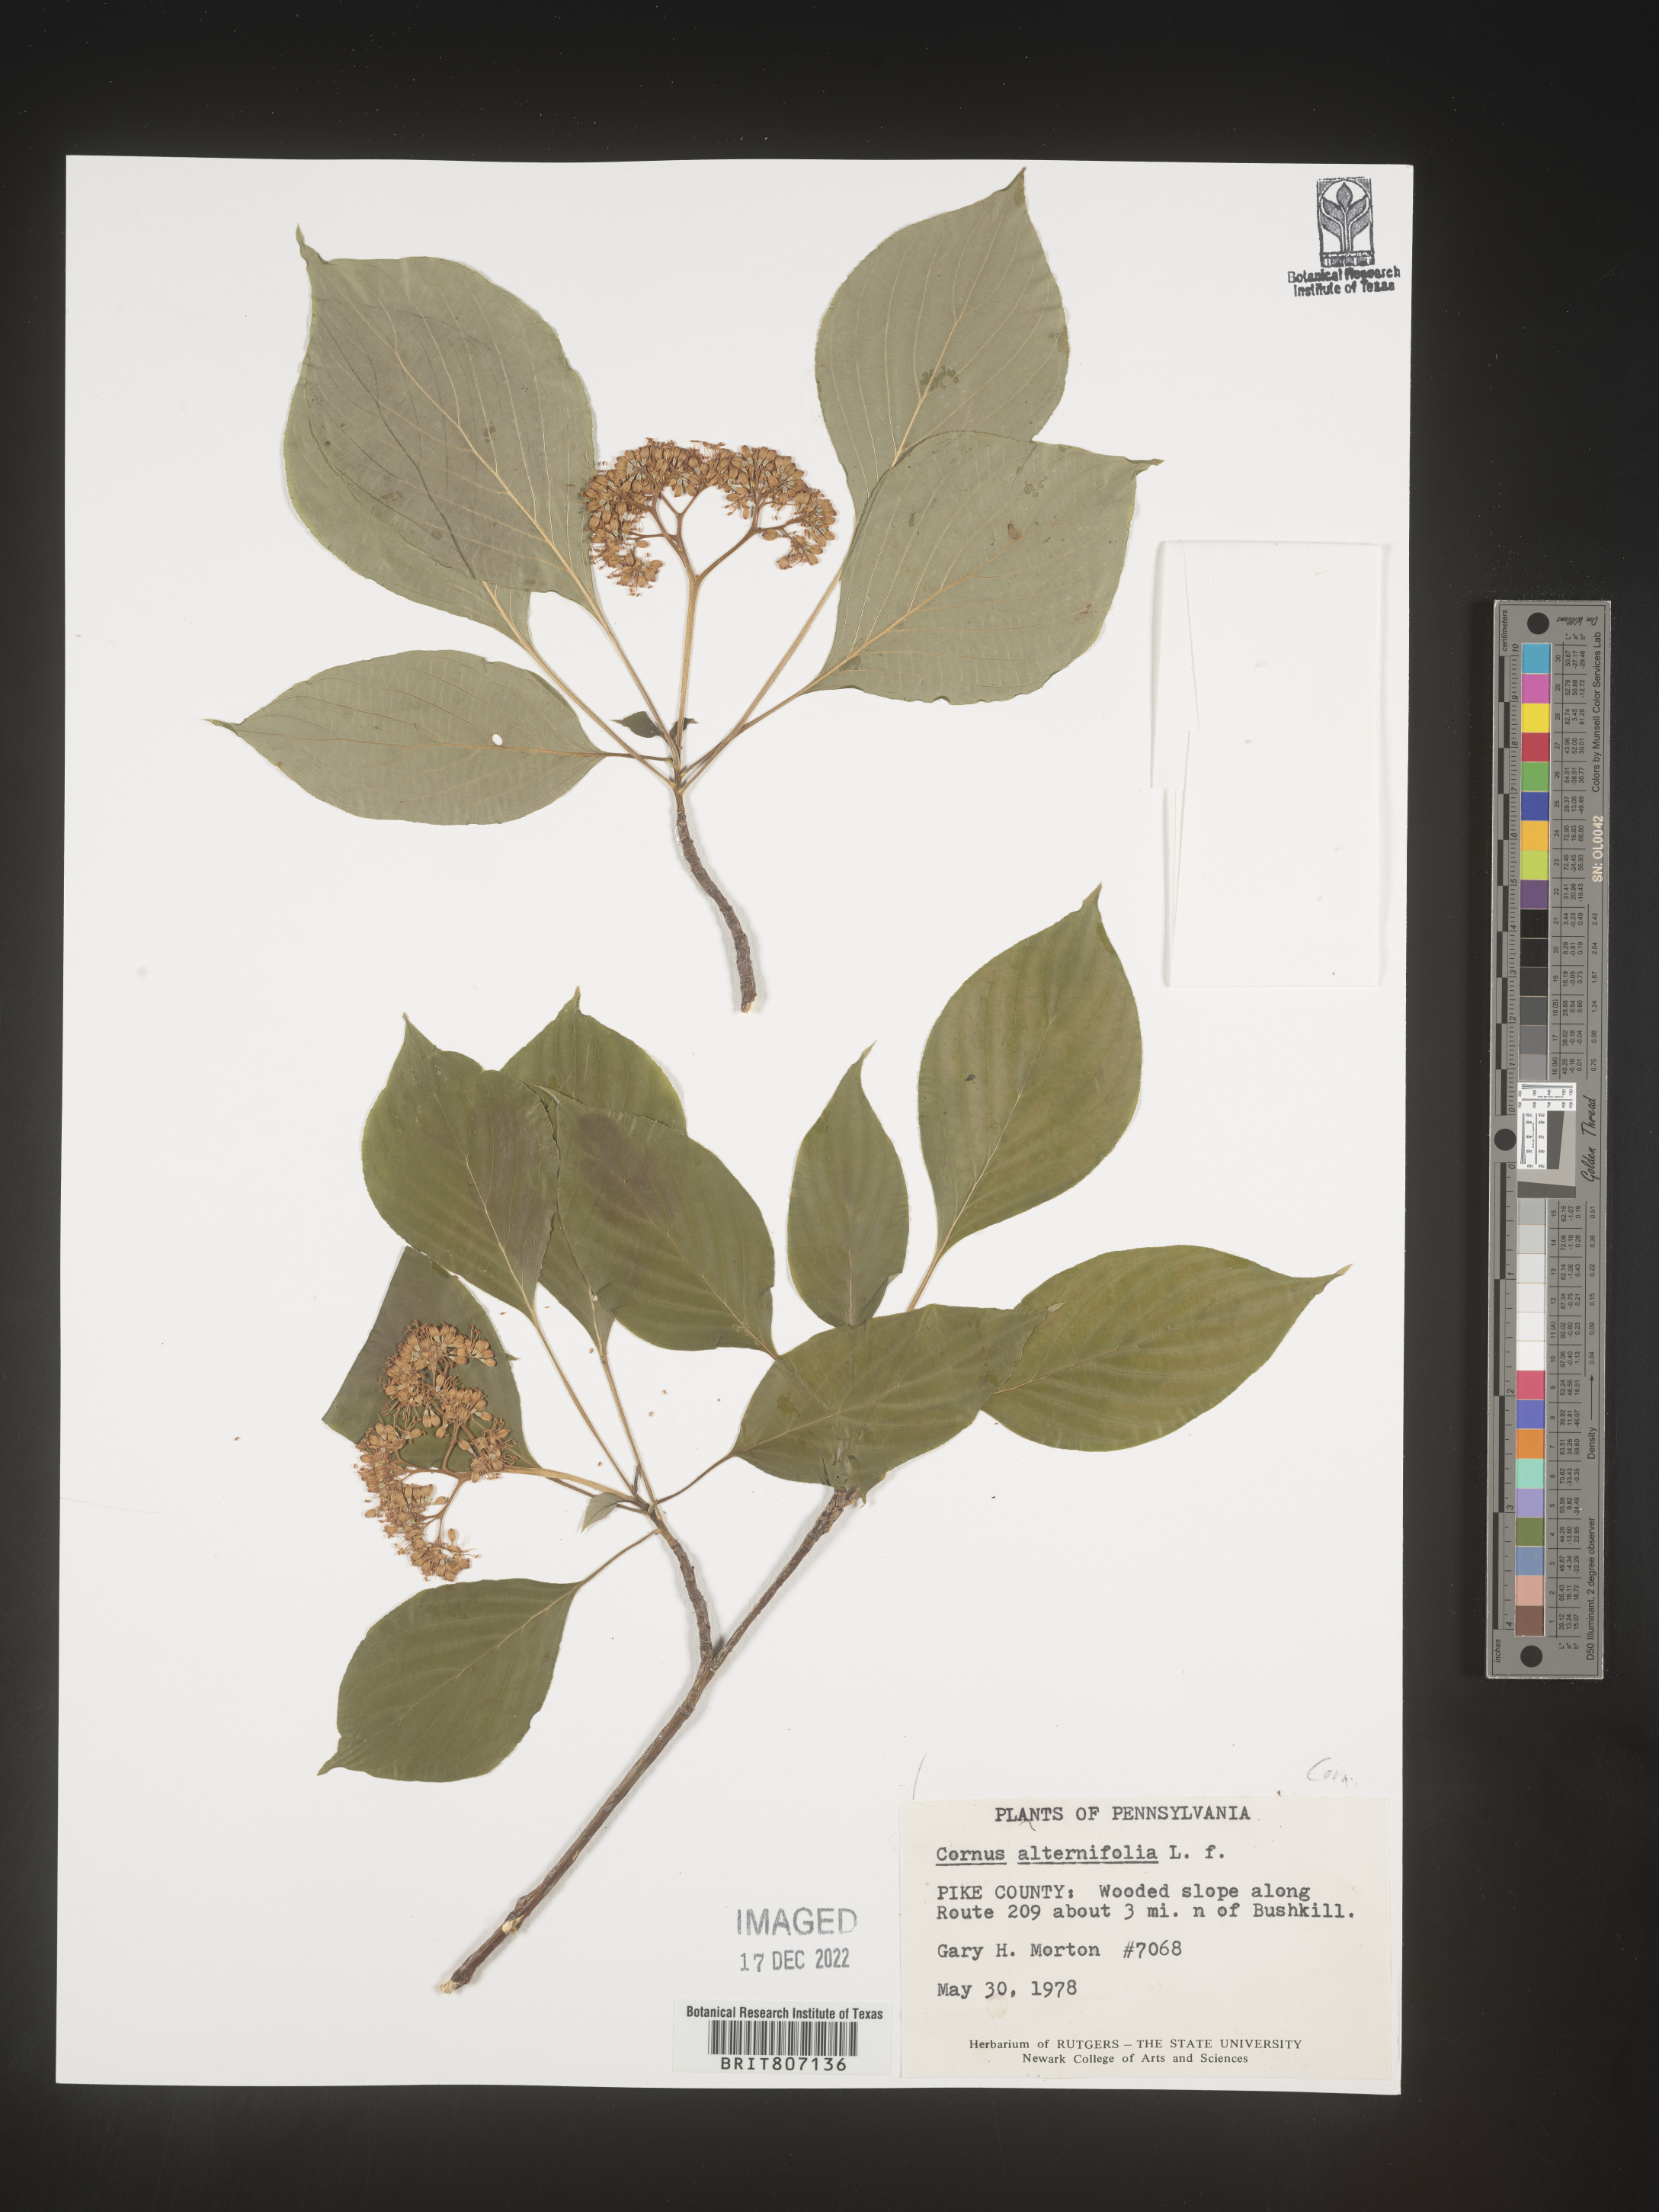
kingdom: Plantae
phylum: Tracheophyta
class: Magnoliopsida
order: Cornales
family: Cornaceae
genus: Cornus
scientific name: Cornus alternifolia
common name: Pagoda dogwood
